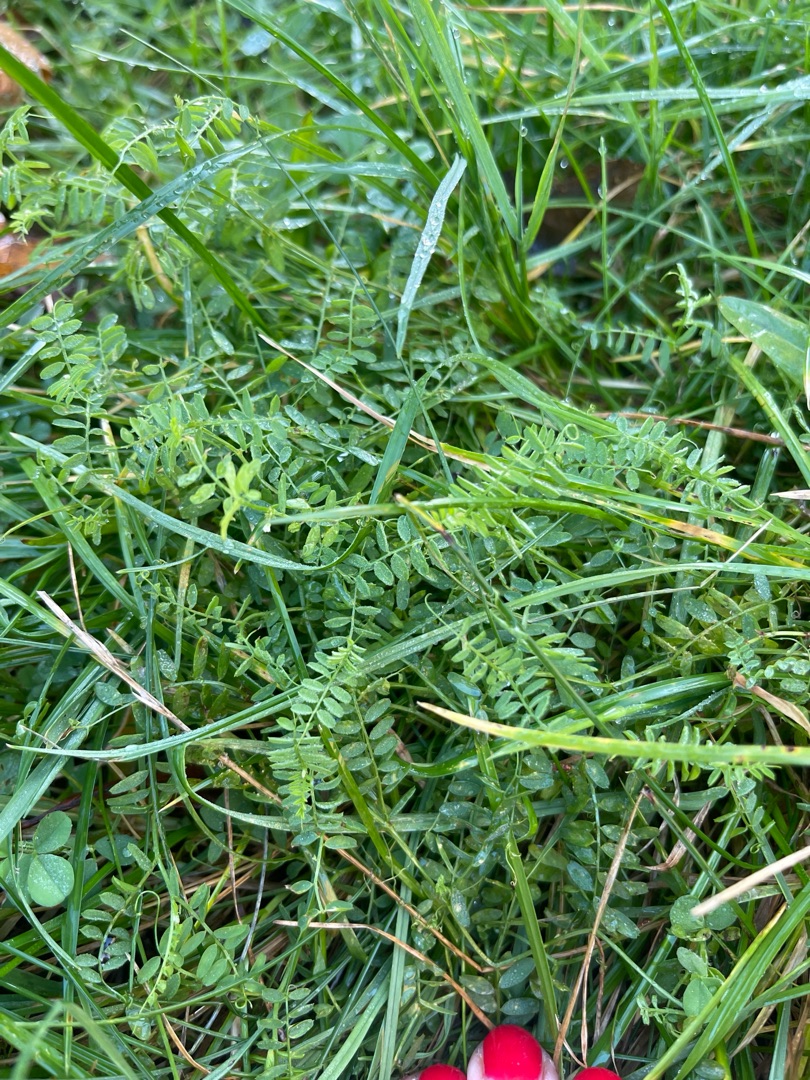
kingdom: Plantae
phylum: Tracheophyta
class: Magnoliopsida
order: Fabales
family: Fabaceae
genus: Vicia
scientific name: Vicia hirsuta
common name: Tofrøet vikke
